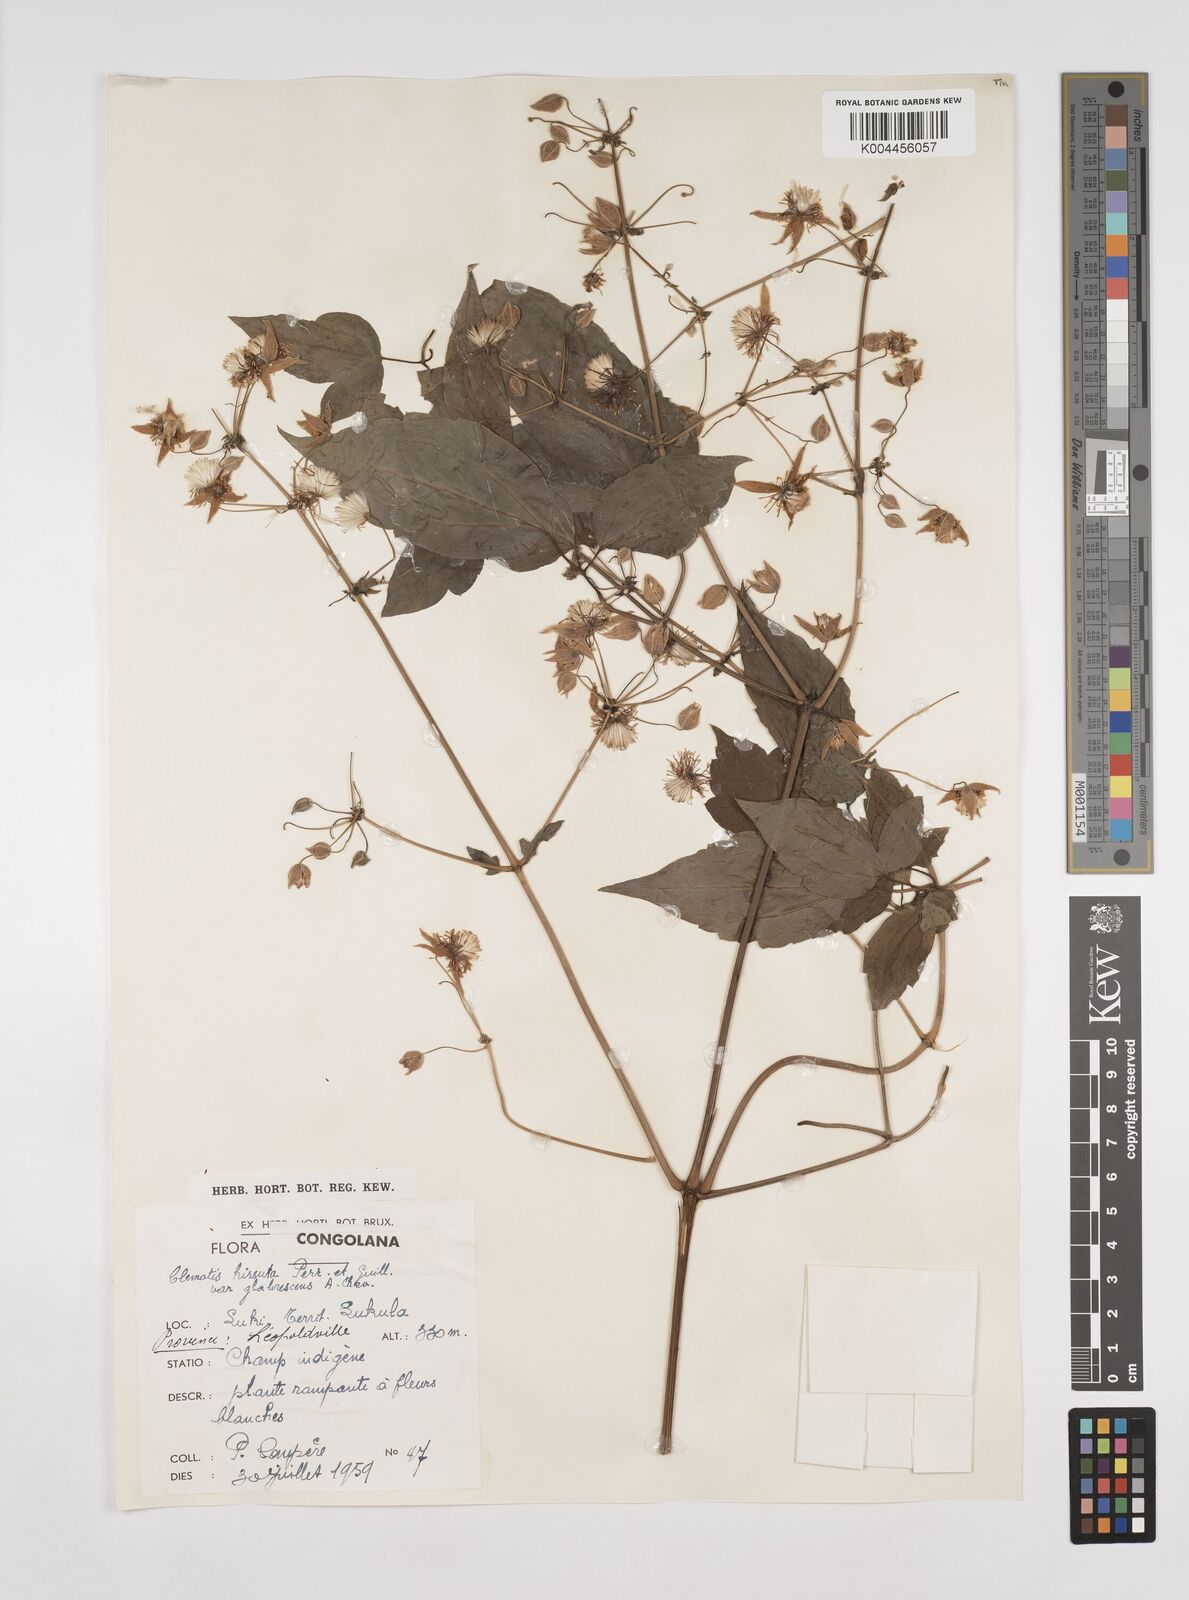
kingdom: Plantae
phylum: Tracheophyta
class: Magnoliopsida
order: Ranunculales
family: Ranunculaceae
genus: Clematis
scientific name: Clematis hirsuta
